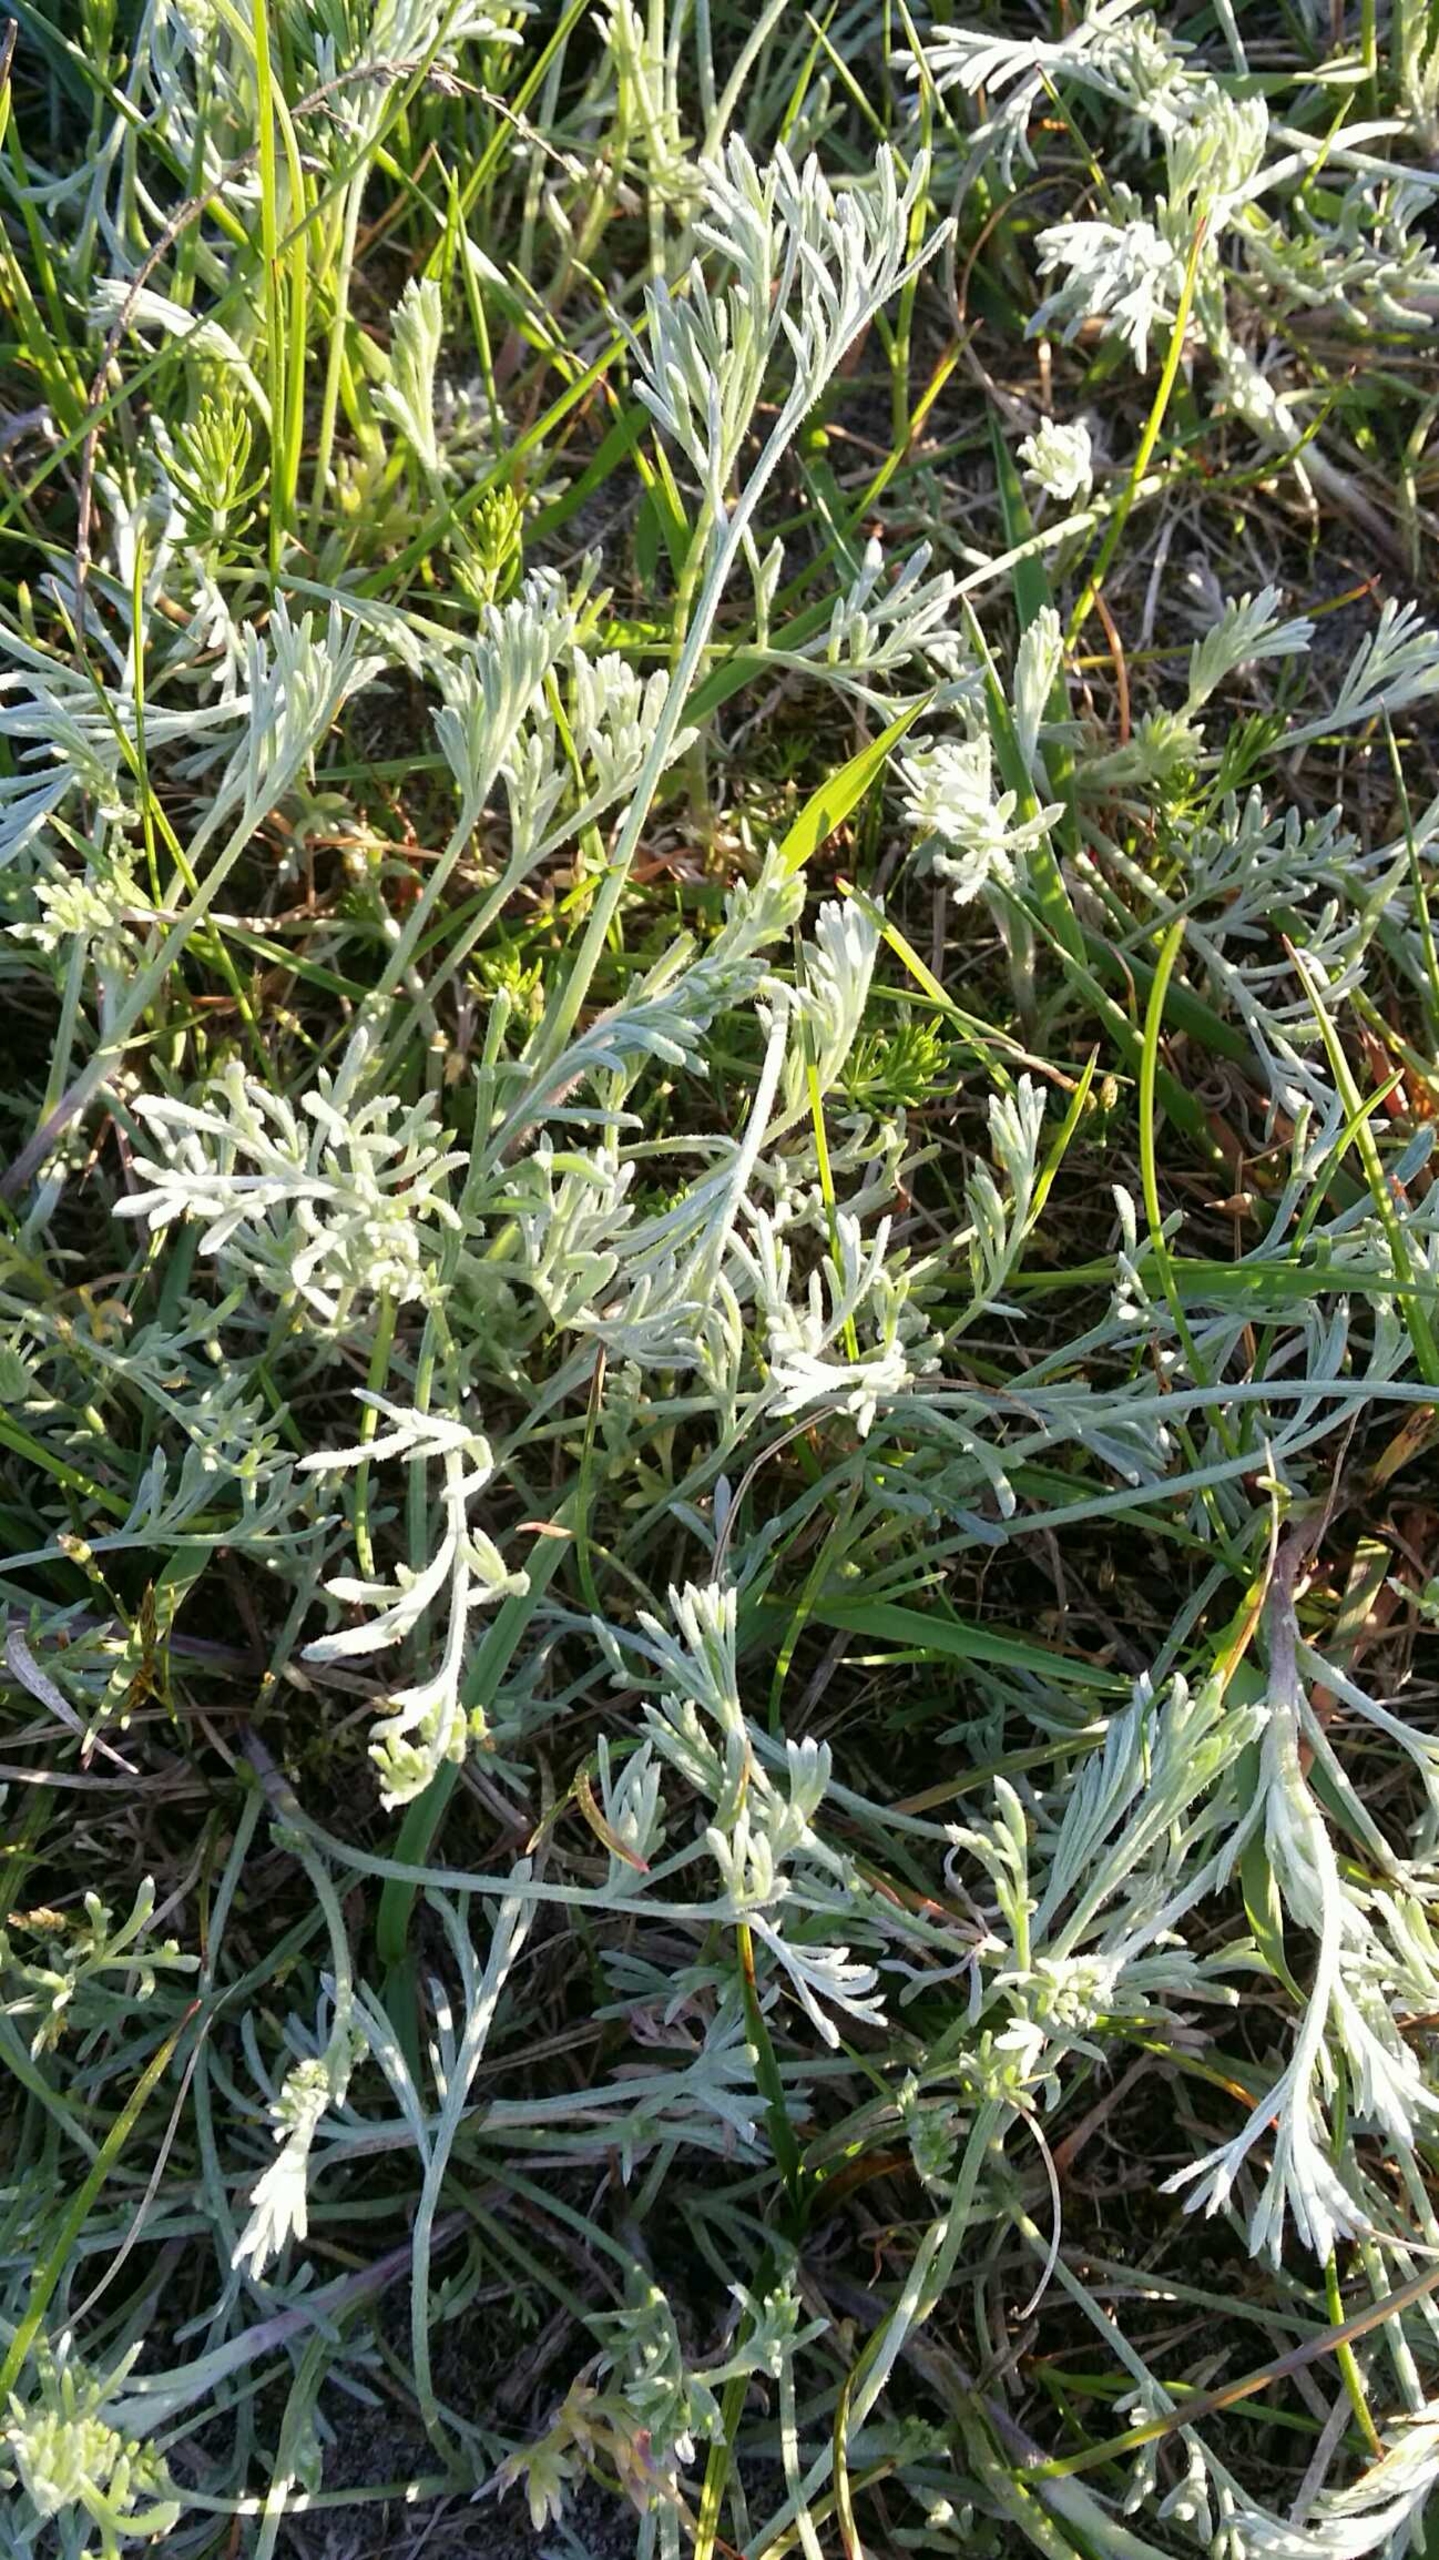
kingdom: Plantae
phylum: Tracheophyta
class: Magnoliopsida
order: Asterales
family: Asteraceae
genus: Artemisia
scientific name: Artemisia campestris
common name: Mark-bynke
